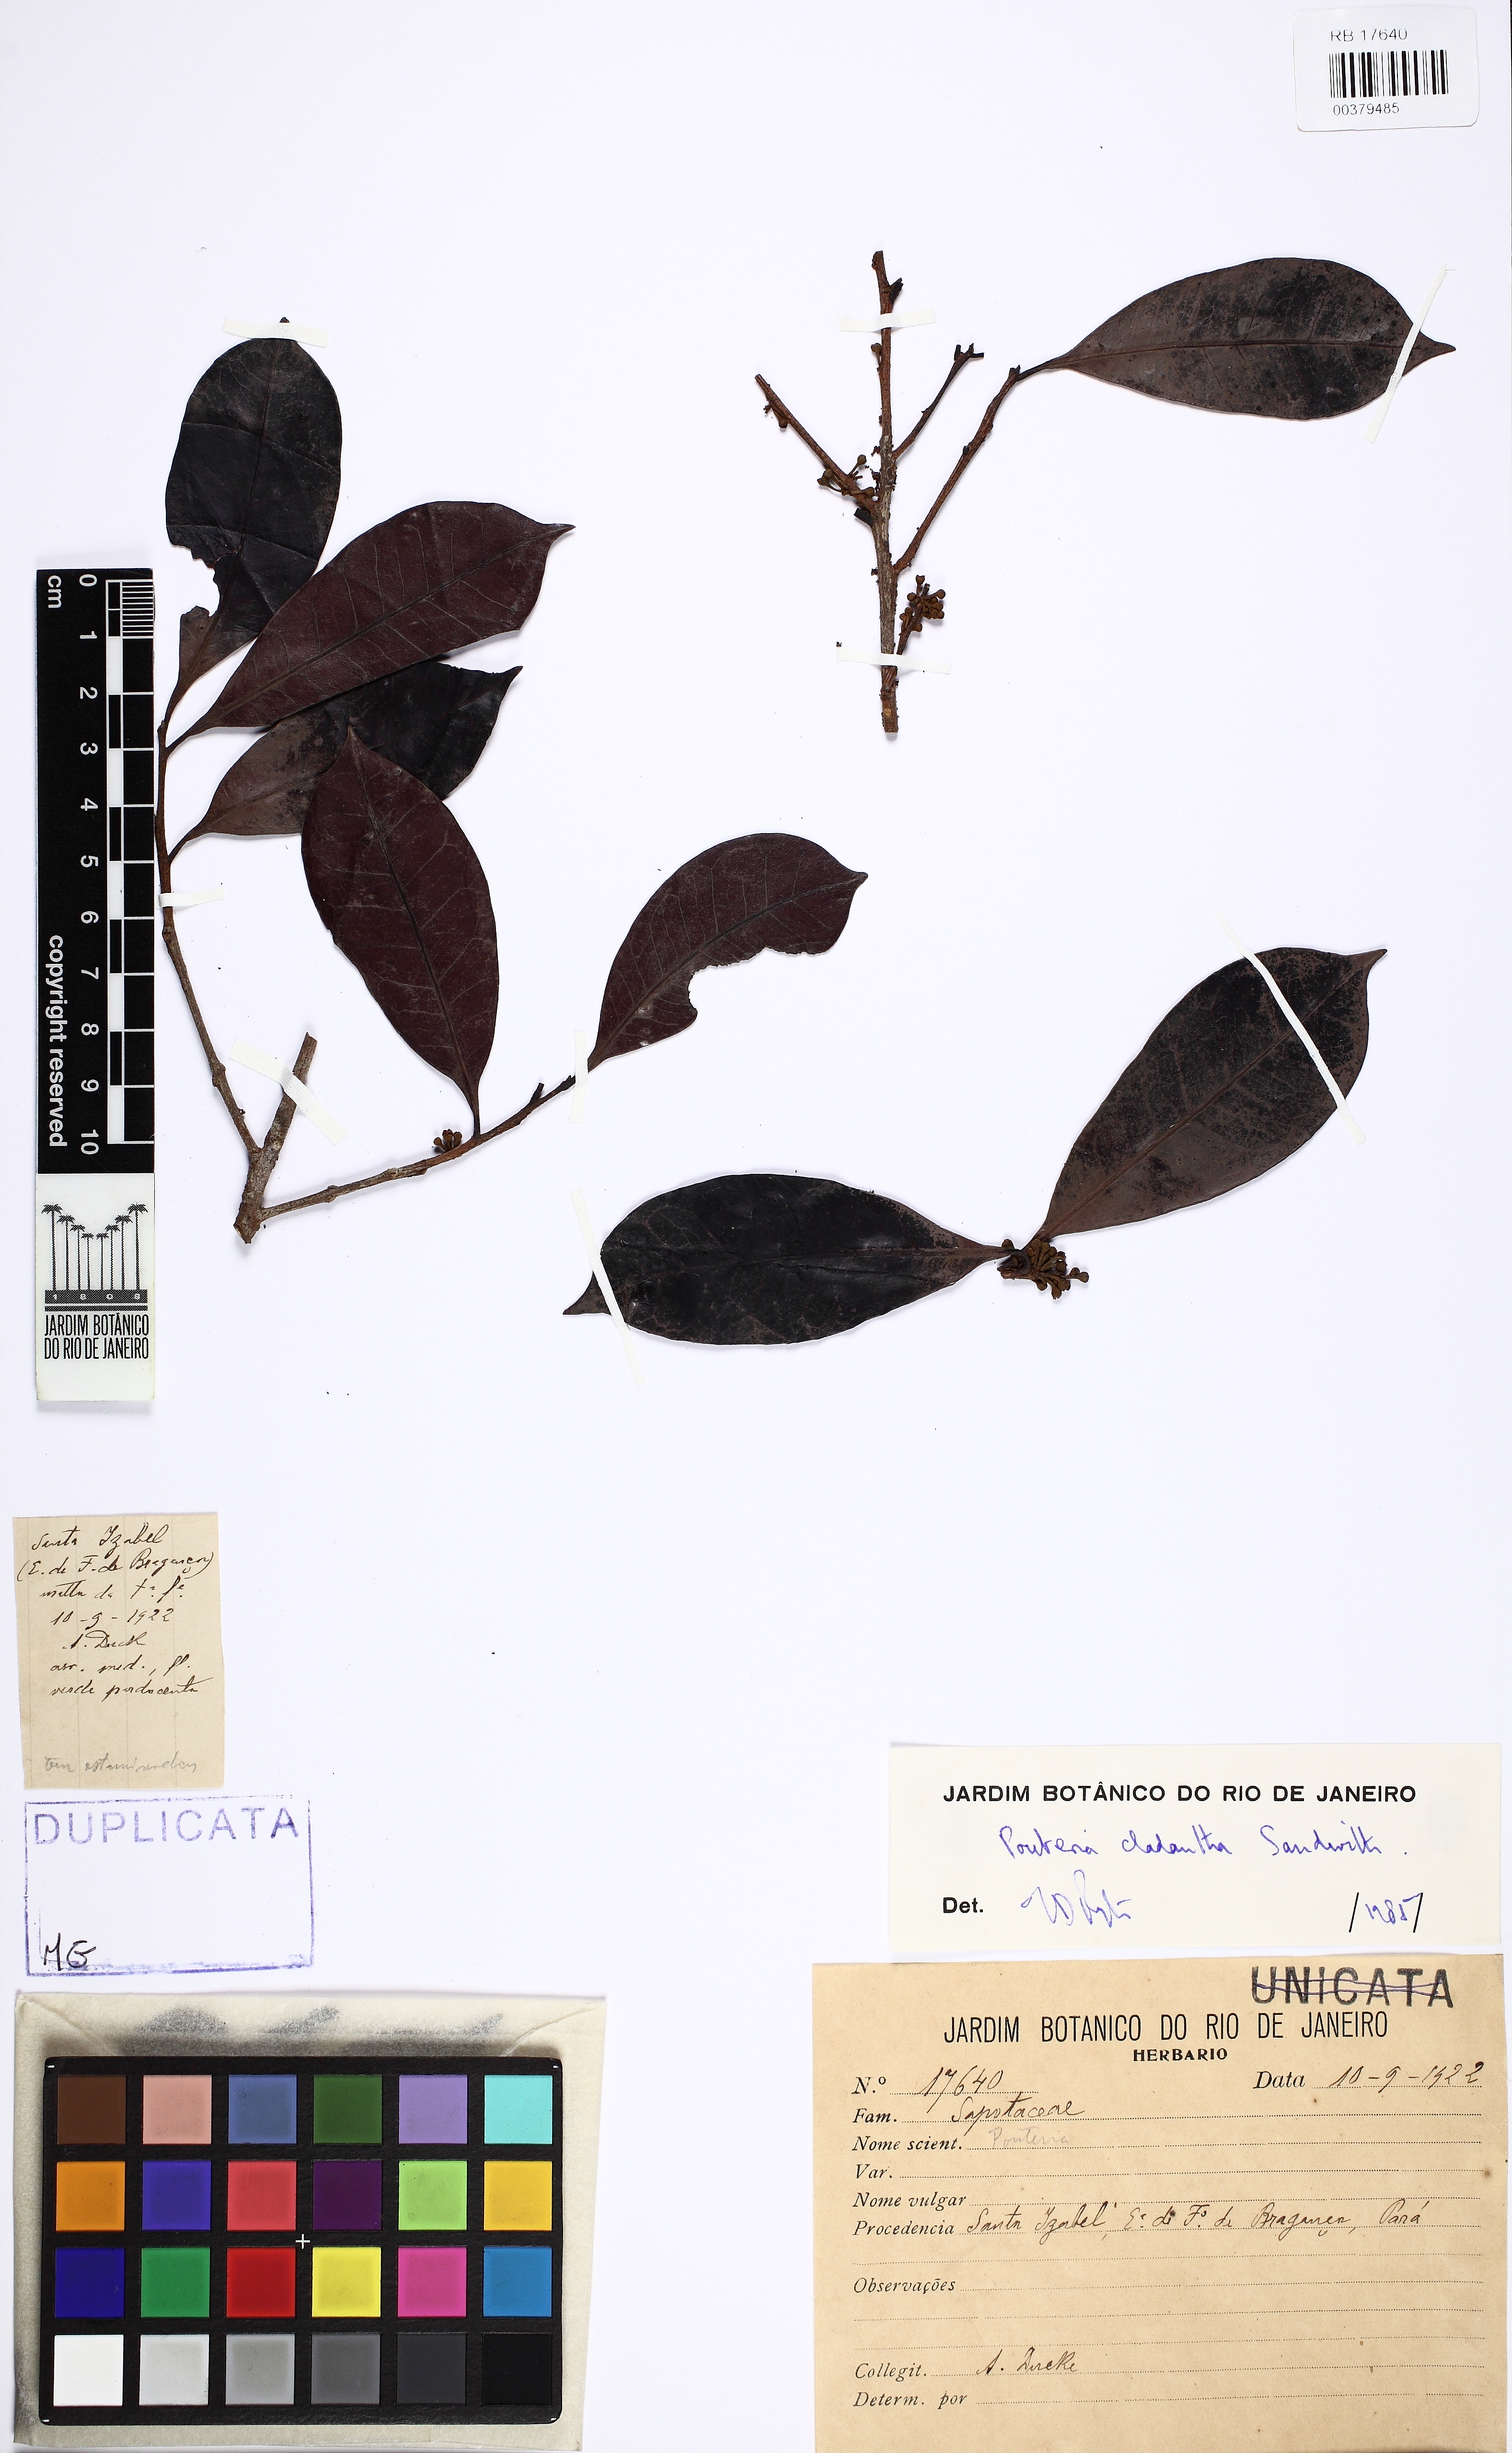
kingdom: Plantae
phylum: Tracheophyta
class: Magnoliopsida
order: Ericales
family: Sapotaceae
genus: Pouteria
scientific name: Pouteria cladantha
